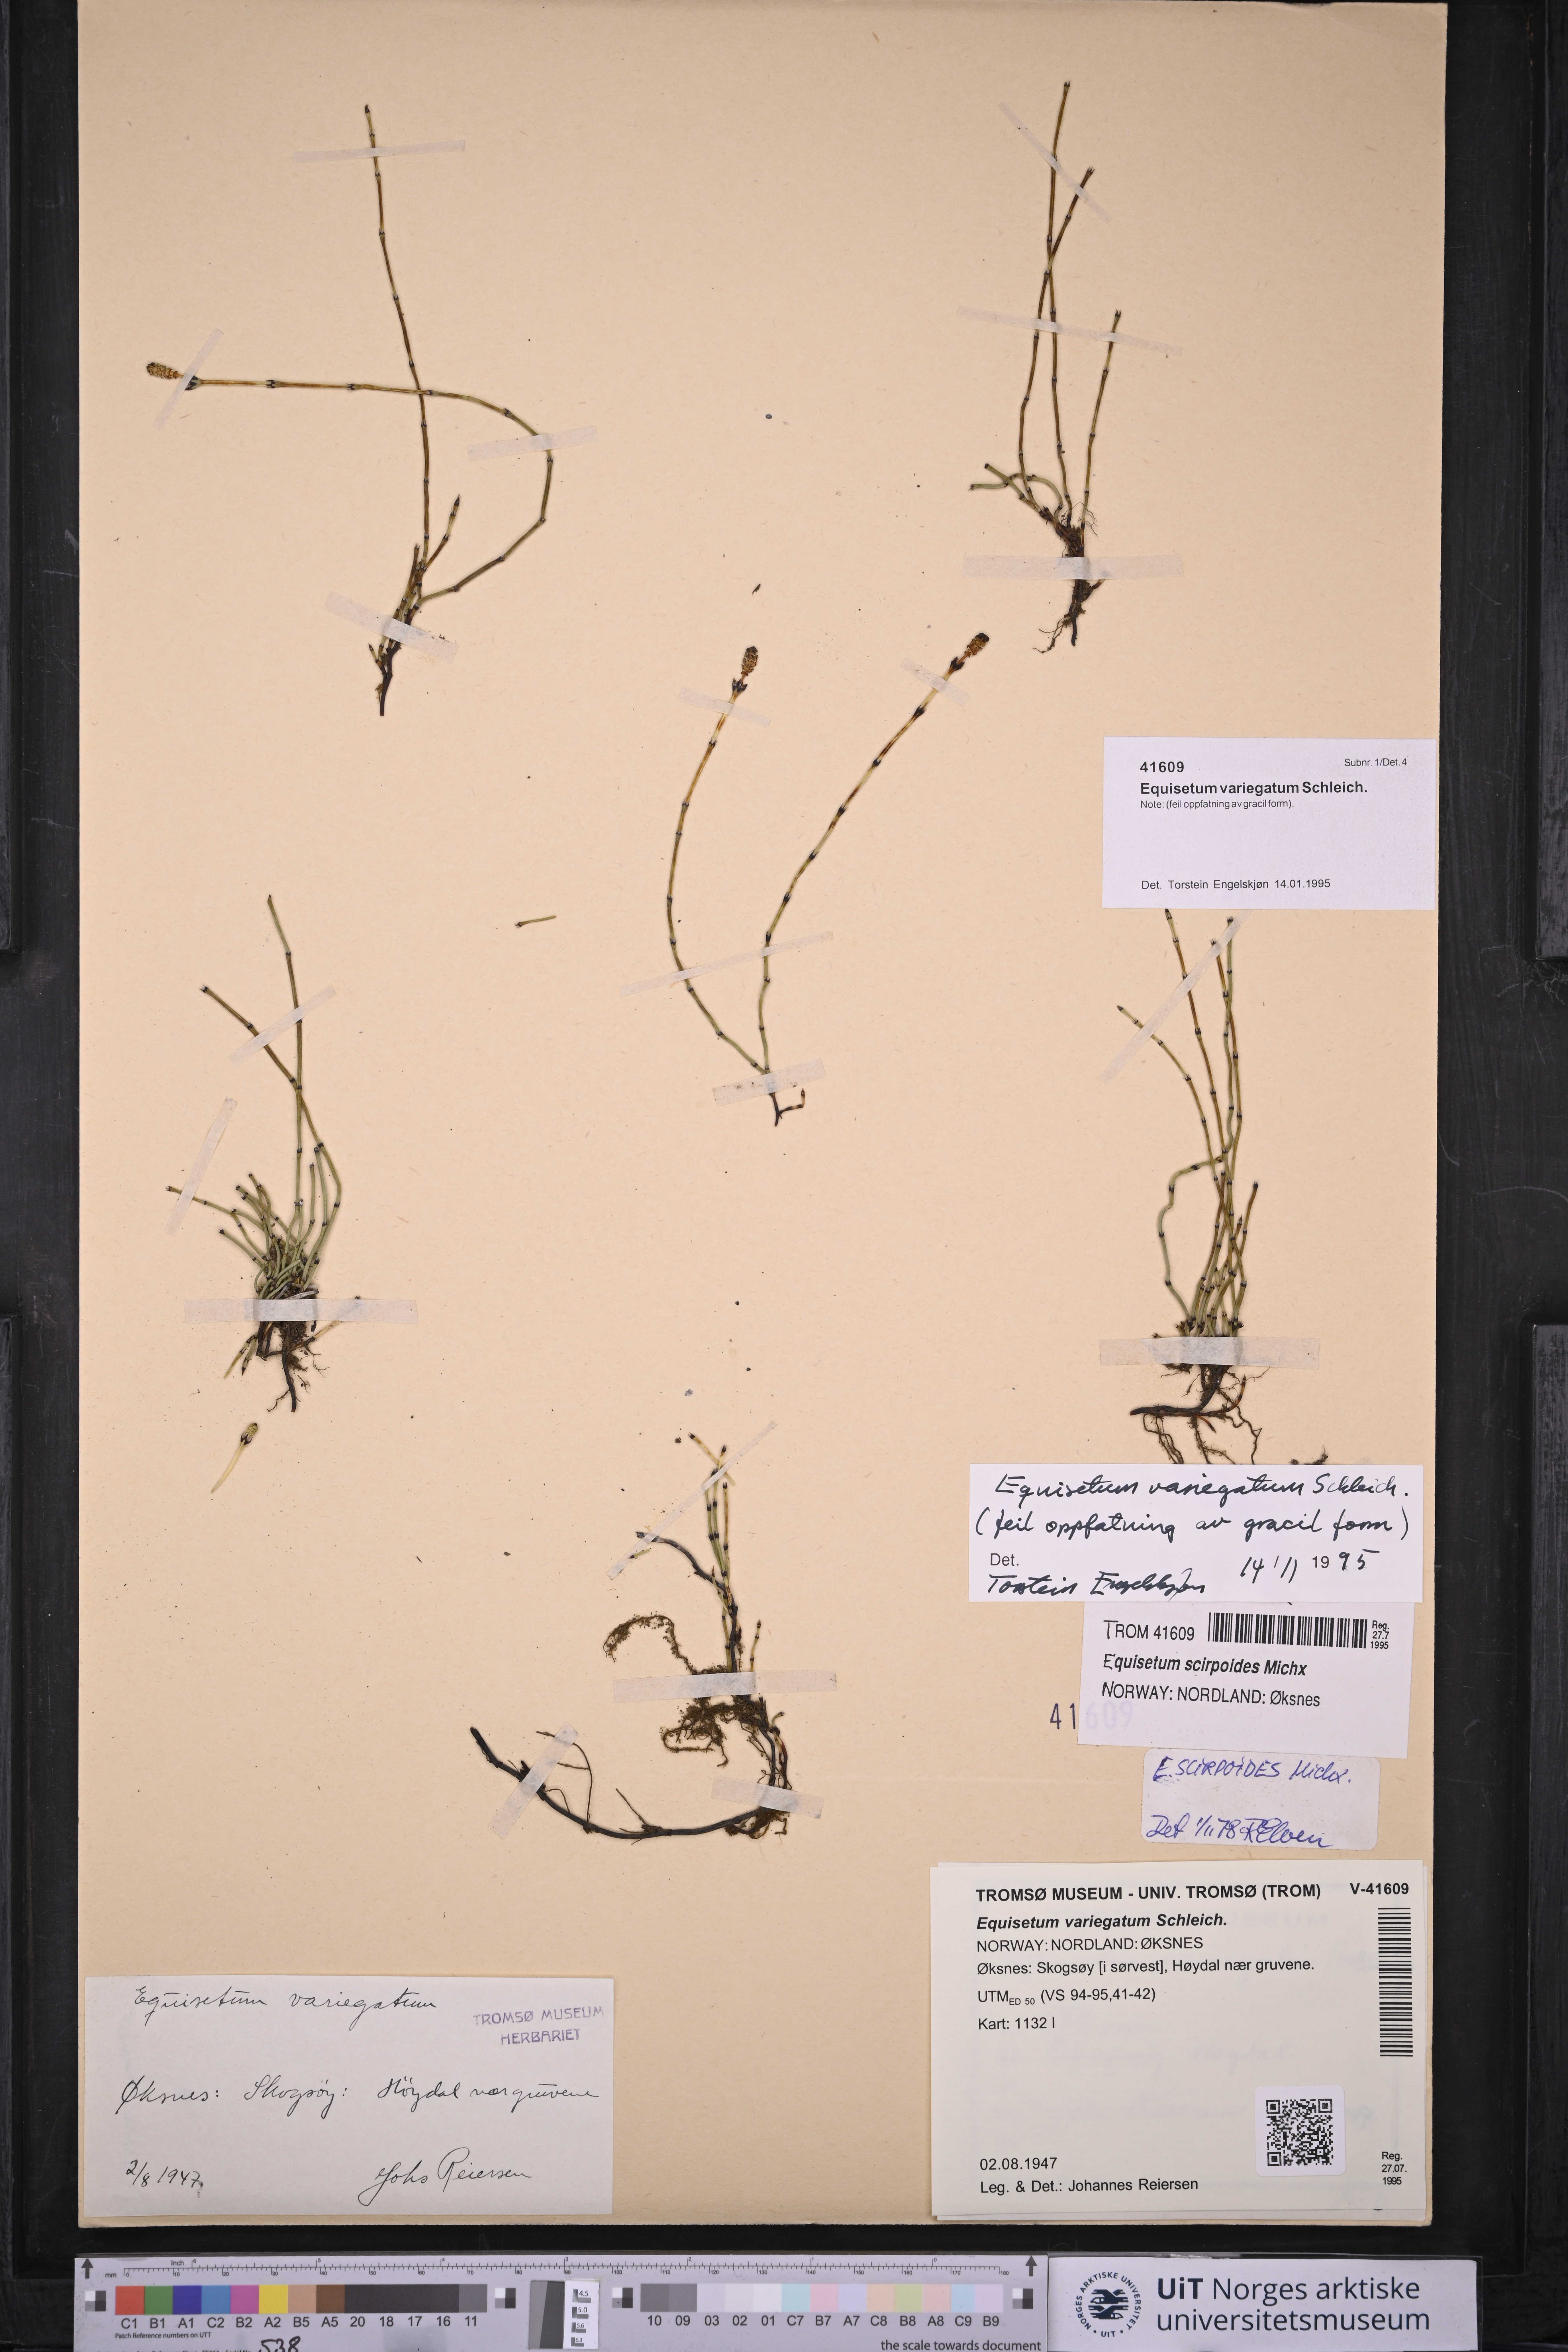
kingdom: Plantae
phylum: Tracheophyta
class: Polypodiopsida
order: Equisetales
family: Equisetaceae
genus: Equisetum
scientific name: Equisetum variegatum
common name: Variegated horsetail
